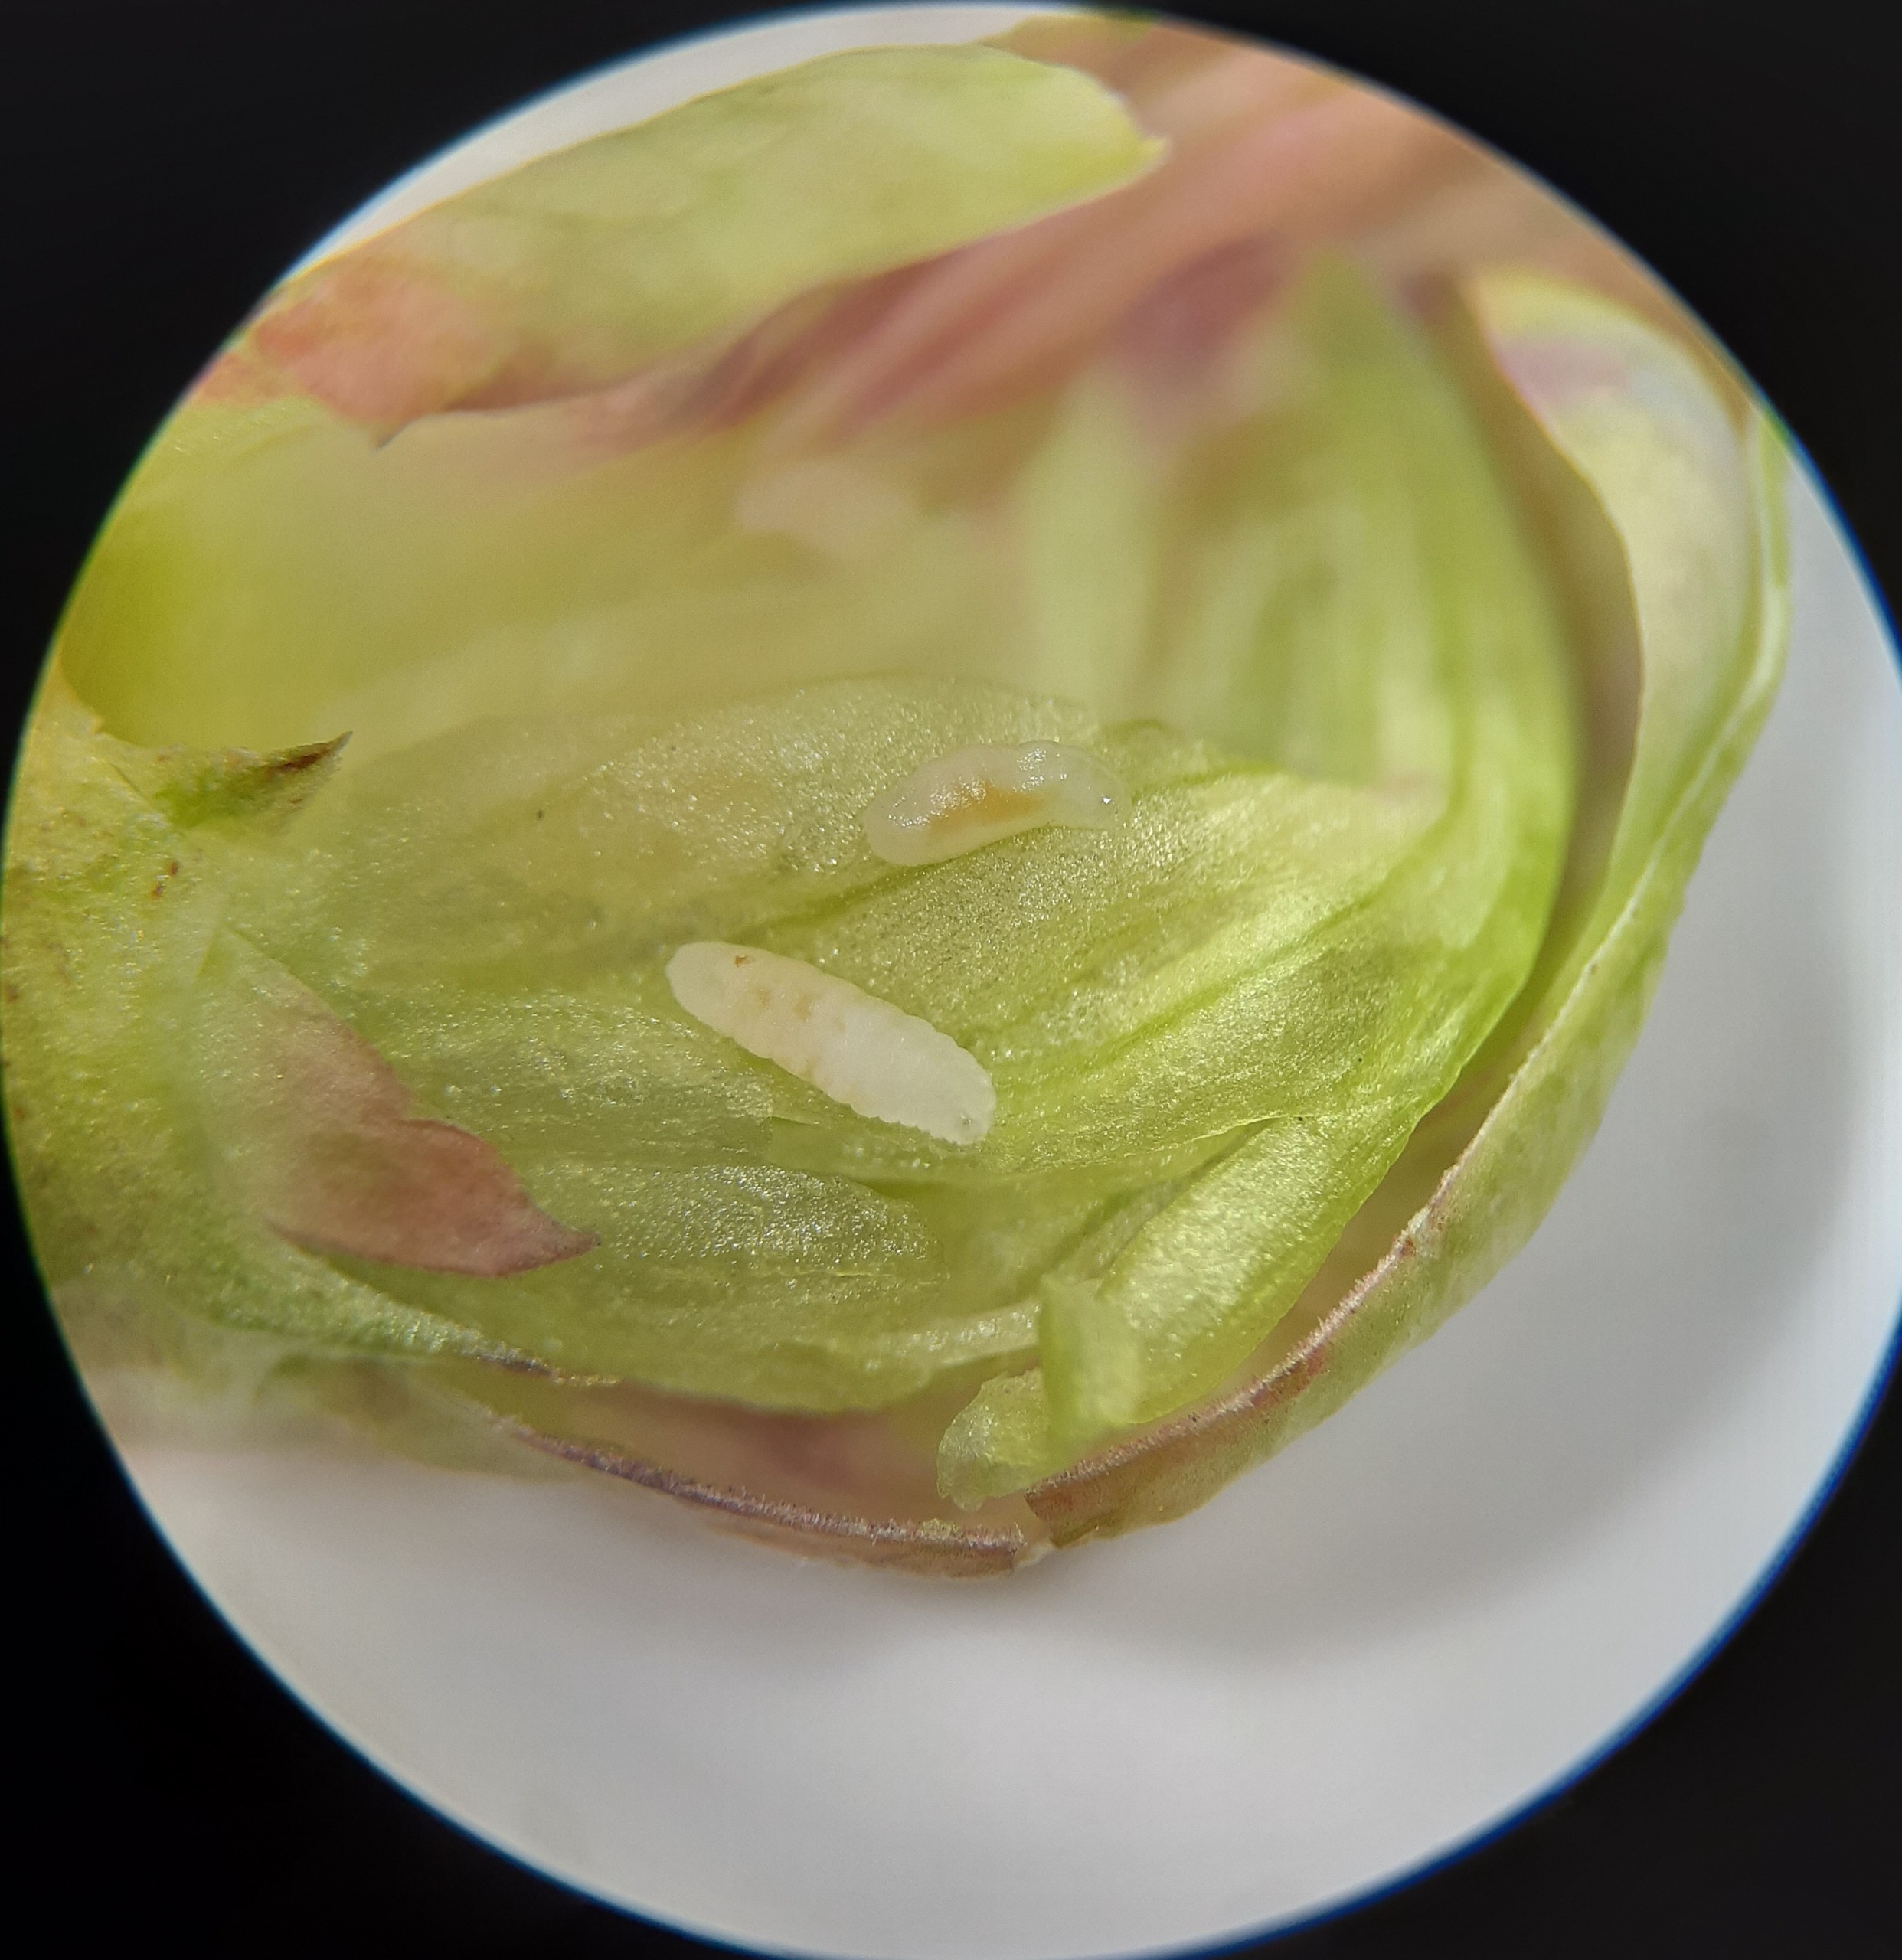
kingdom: Animalia
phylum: Arthropoda
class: Insecta
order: Diptera
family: Cecidomyiidae
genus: Lathyromyza
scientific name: Lathyromyza florum
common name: Fladbælgblomstgalmyg
